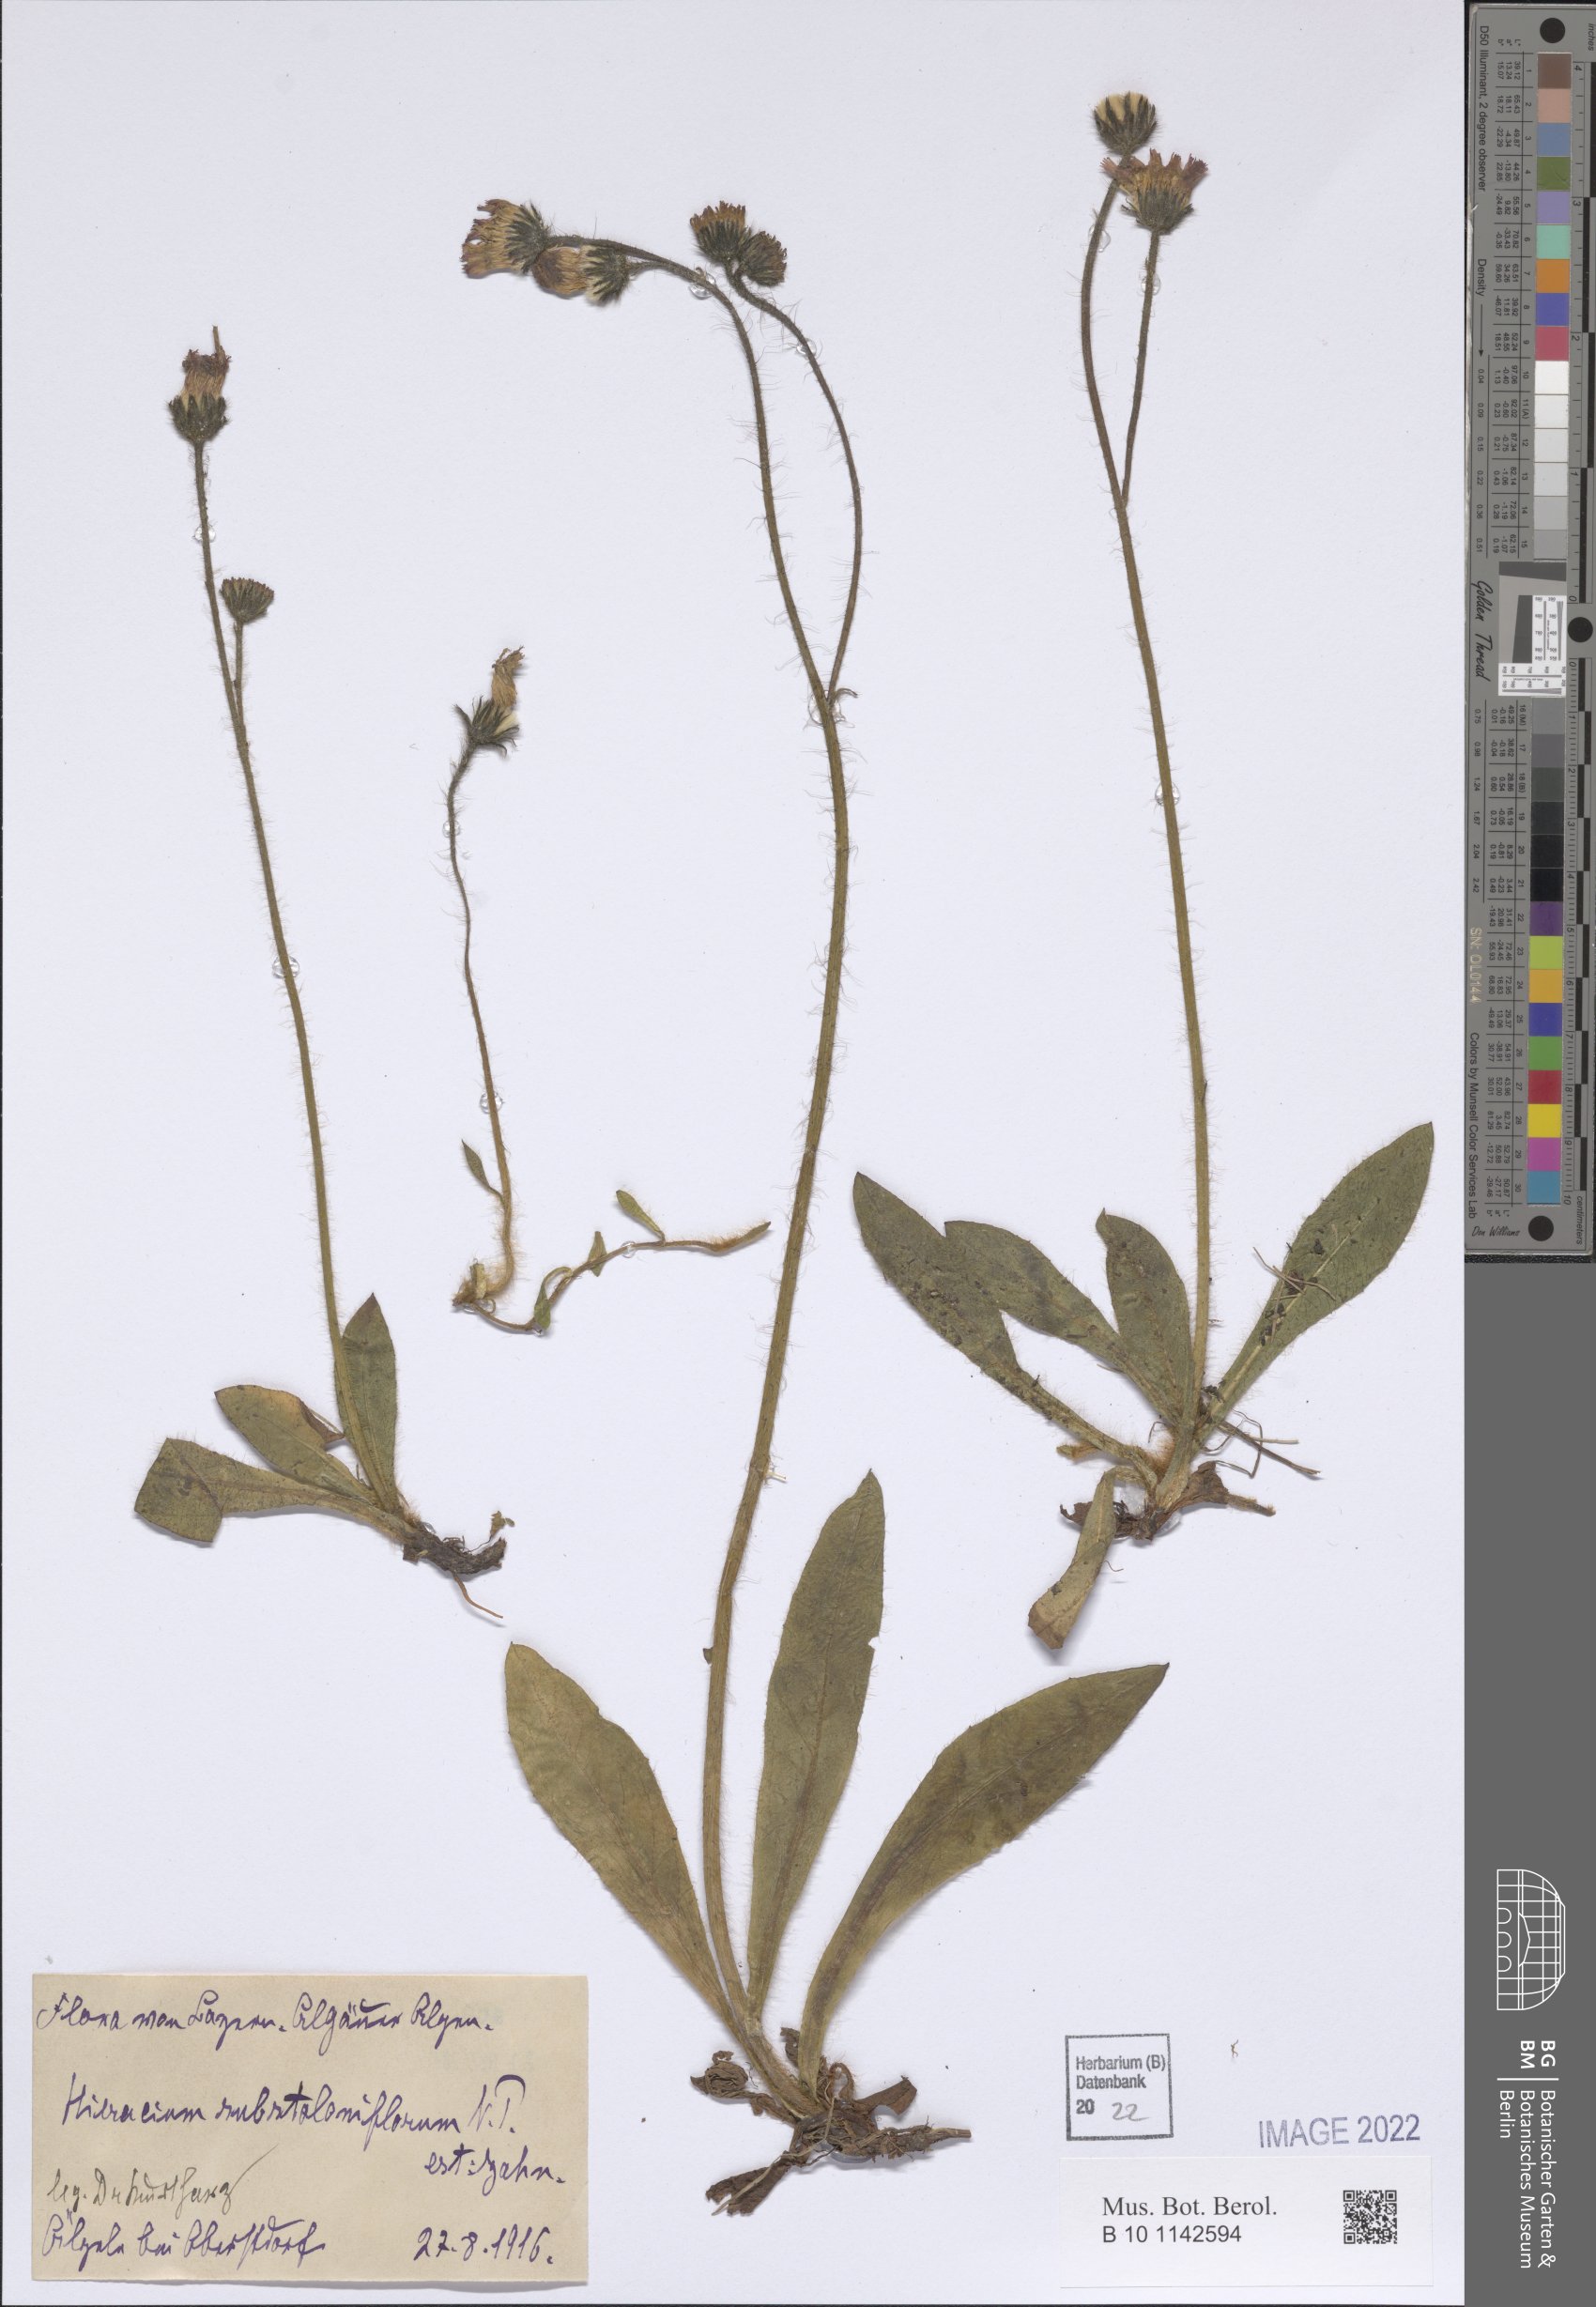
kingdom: Plantae
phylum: Tracheophyta
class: Magnoliopsida
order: Asterales
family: Asteraceae
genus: Pilosella
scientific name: Pilosella rubra
